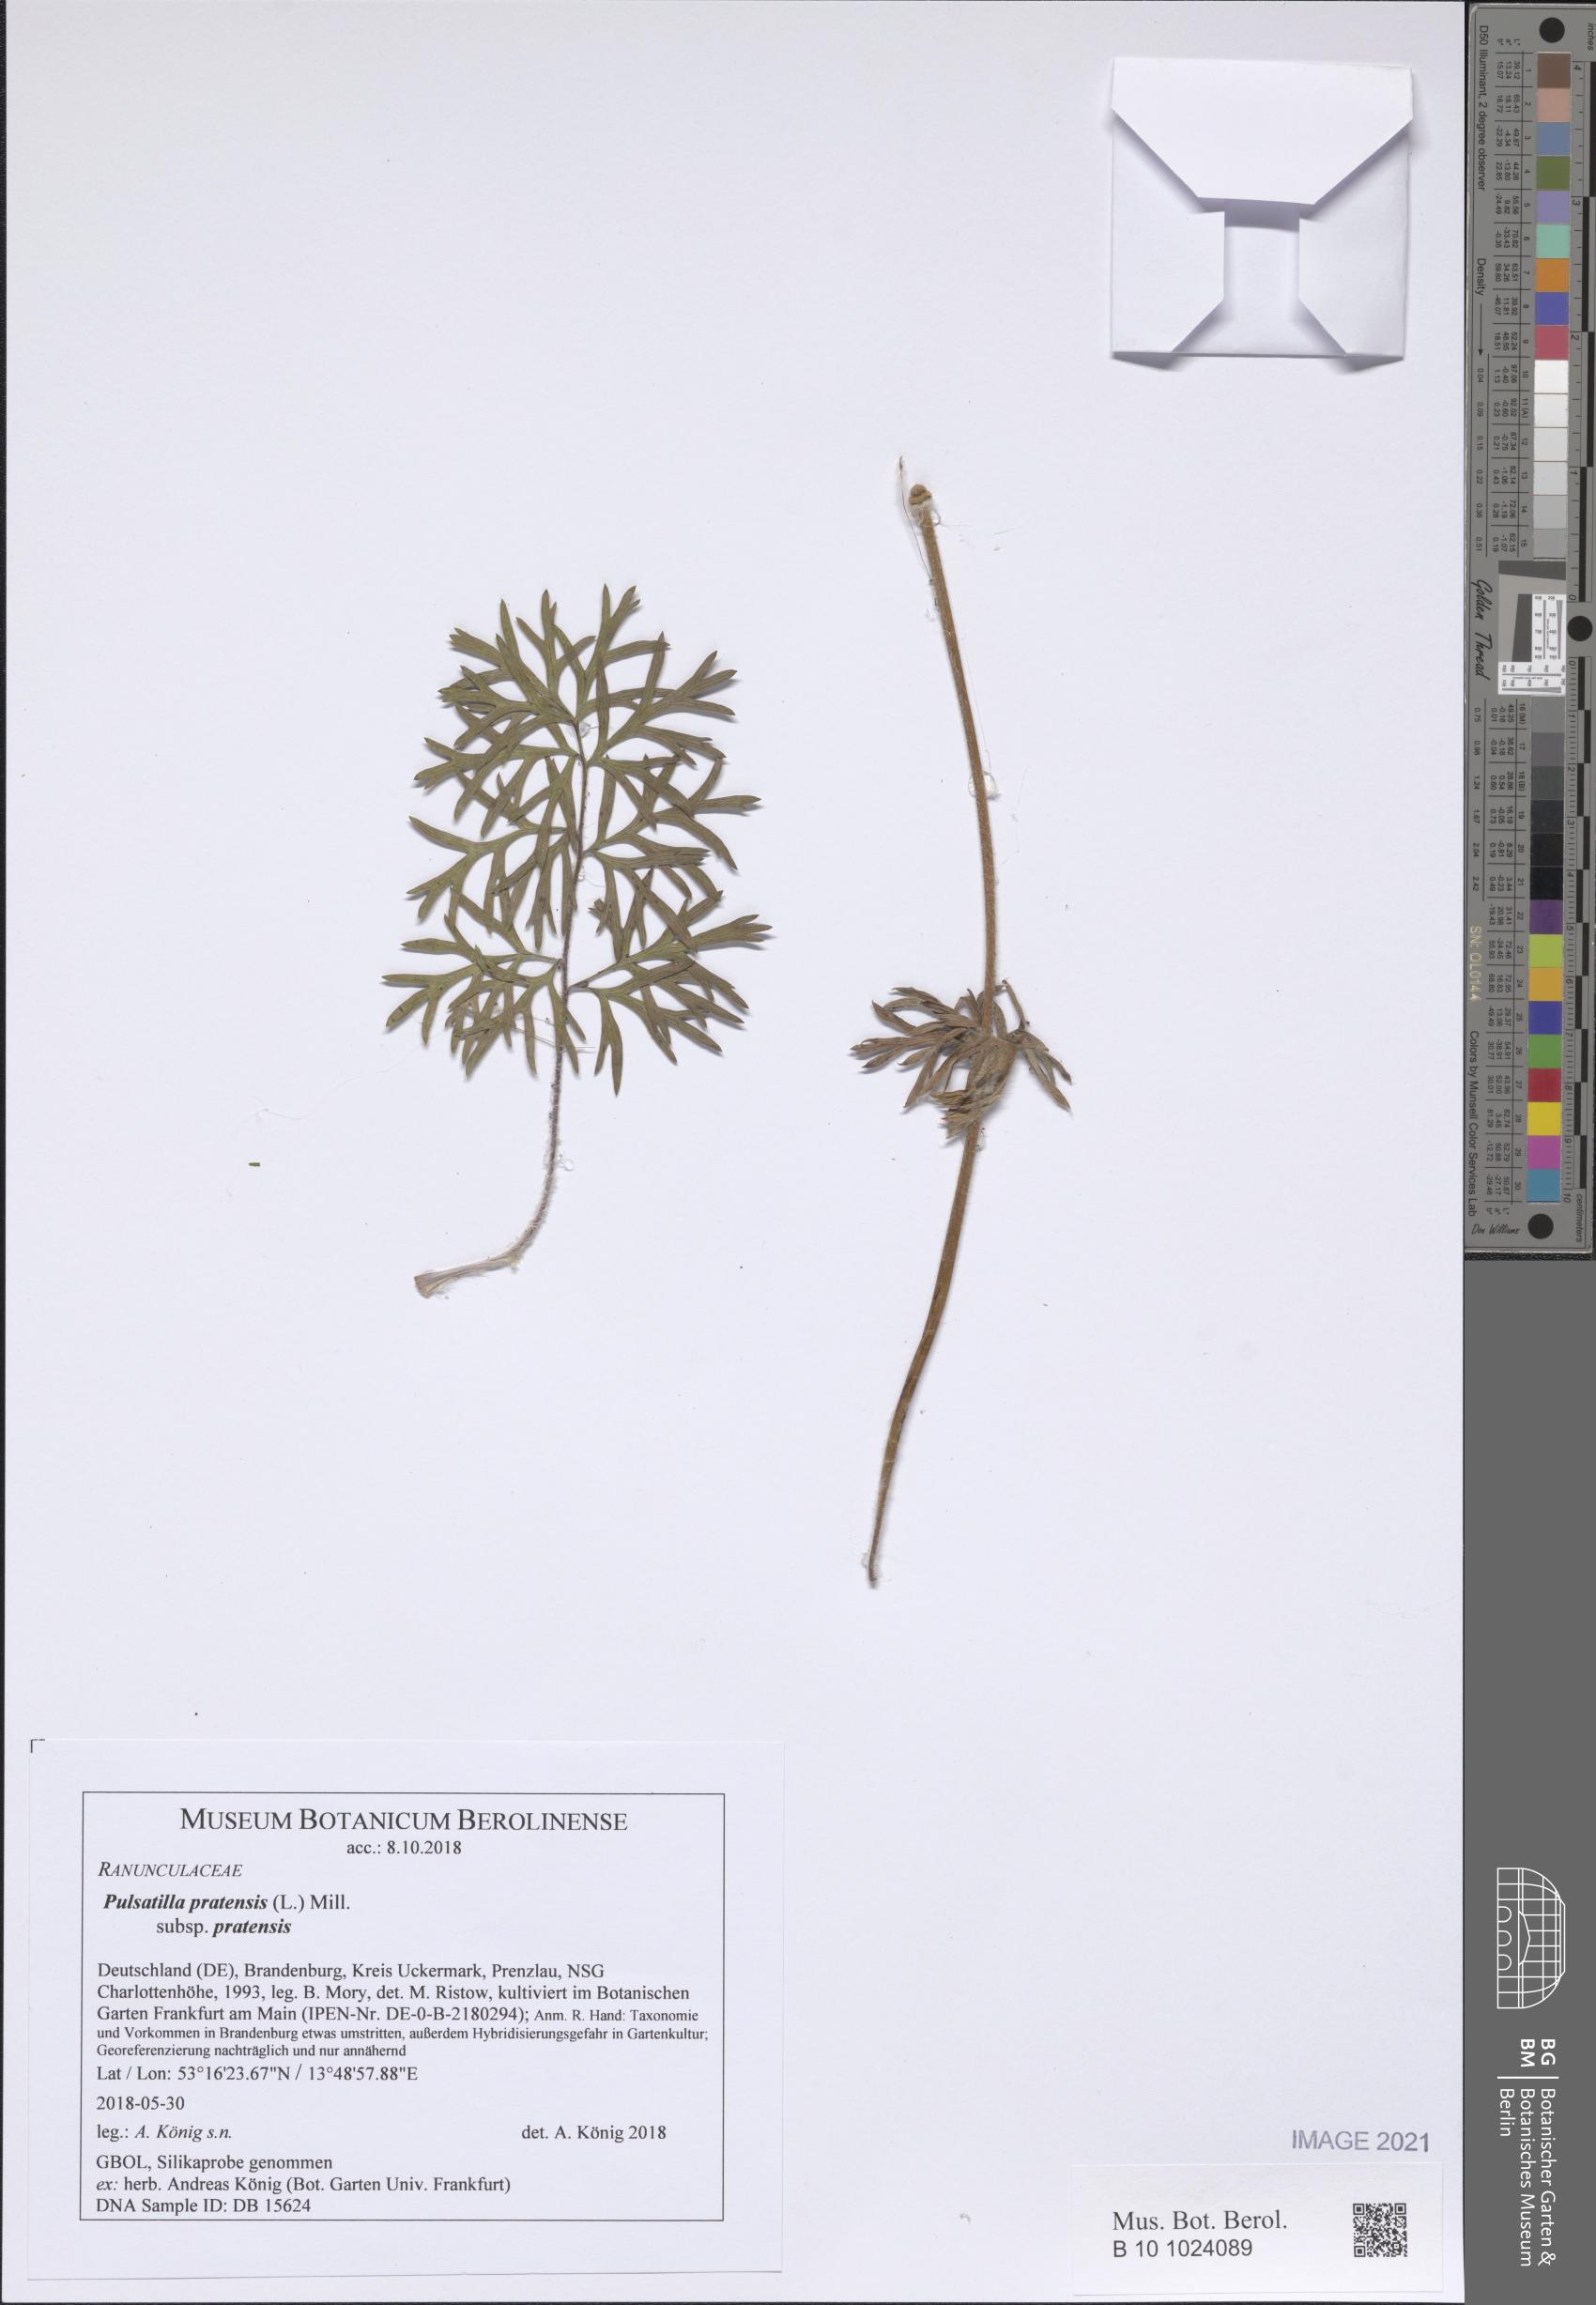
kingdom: Plantae
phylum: Tracheophyta
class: Magnoliopsida
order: Ranunculales
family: Ranunculaceae
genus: Pulsatilla
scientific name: Pulsatilla pratensis
